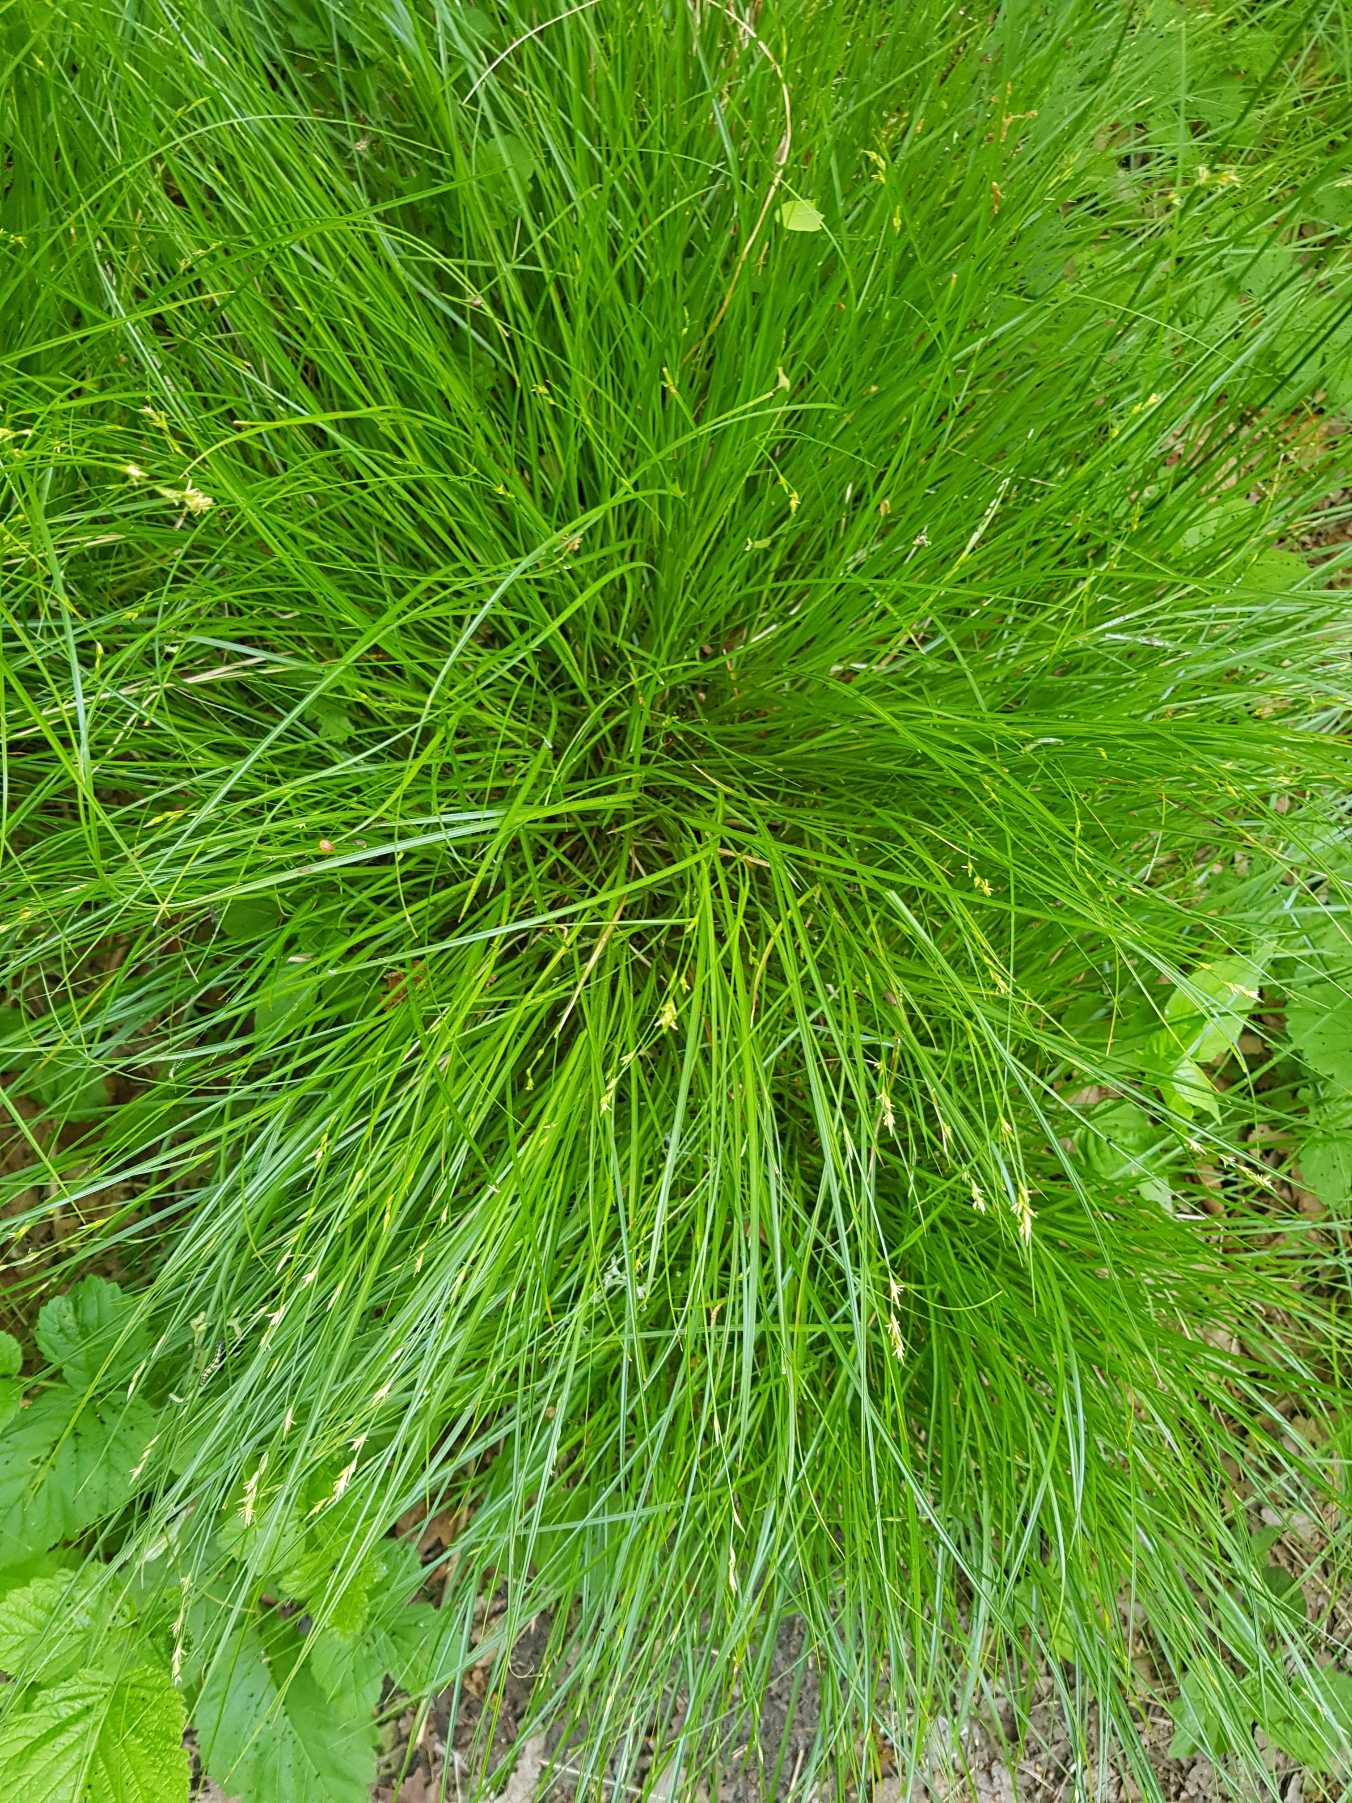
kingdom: Plantae
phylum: Tracheophyta
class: Liliopsida
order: Poales
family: Cyperaceae
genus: Carex
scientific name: Carex remota
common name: Akselblomstret star
